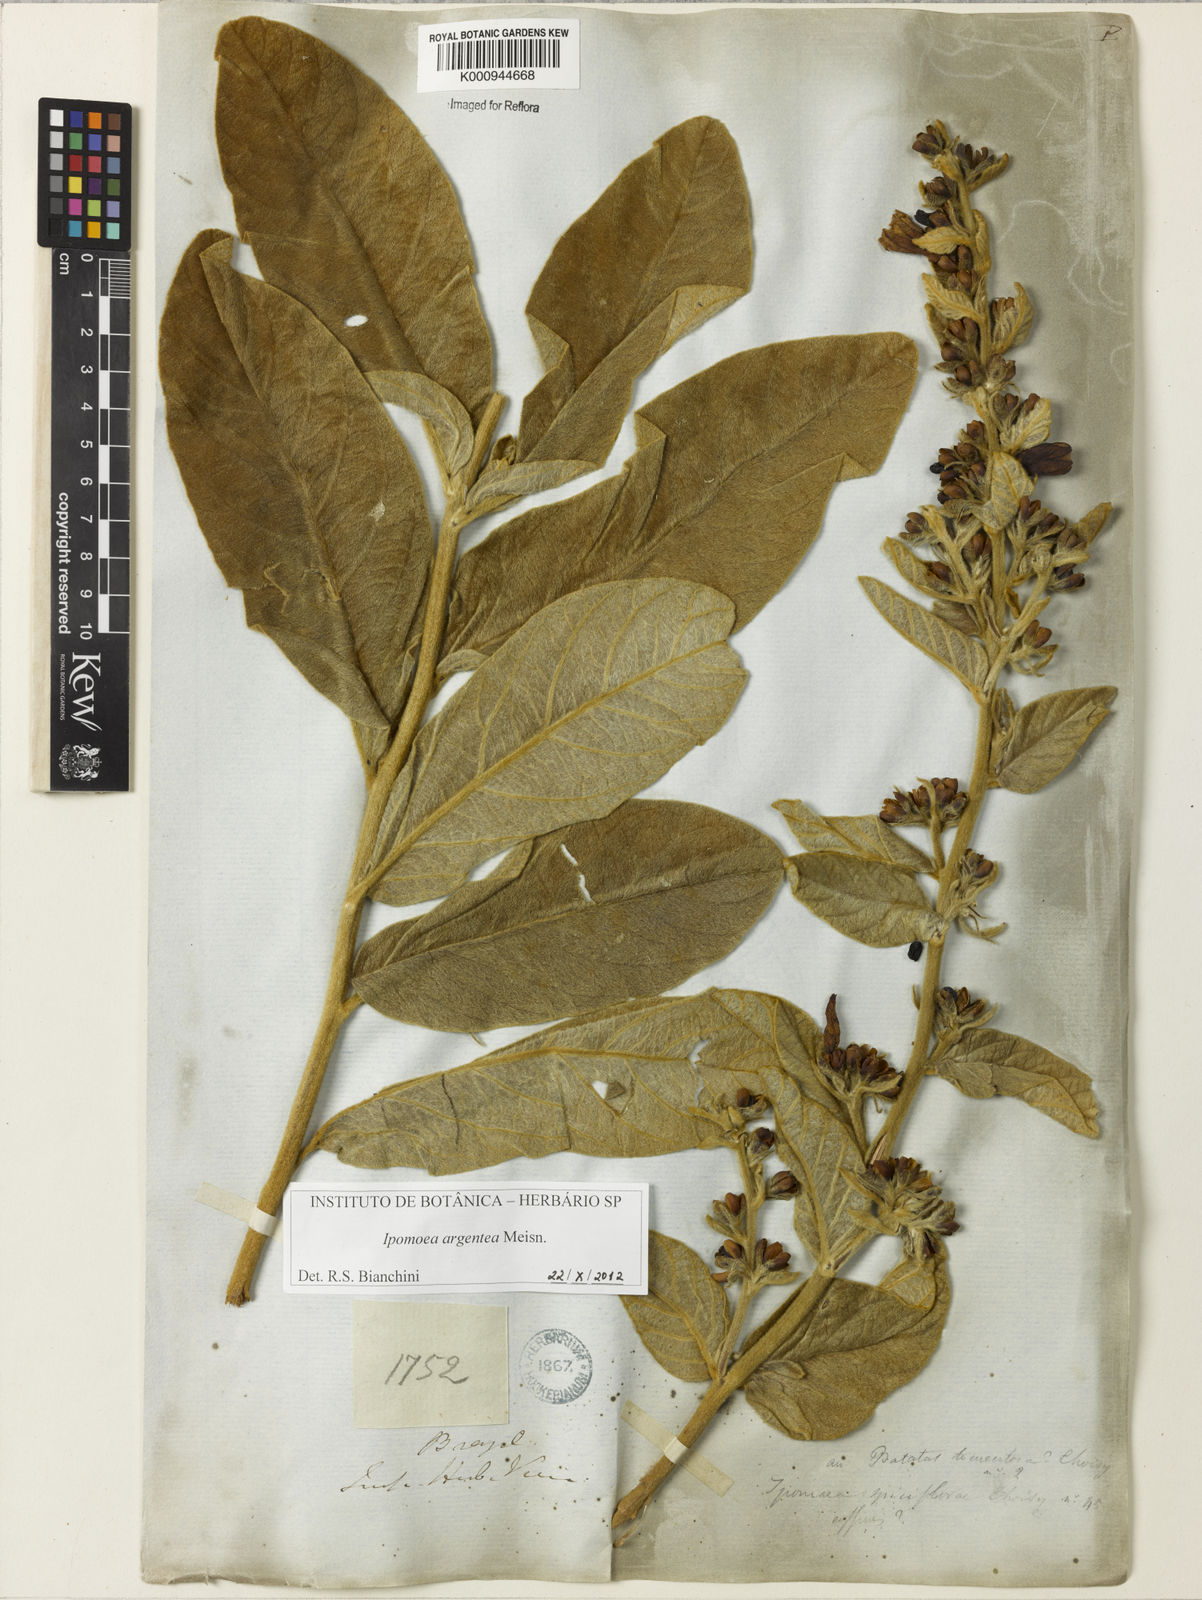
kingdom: Plantae
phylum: Tracheophyta
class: Magnoliopsida
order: Solanales
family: Convolvulaceae
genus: Ipomoea
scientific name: Ipomoea purpurea
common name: Common morning-glory
